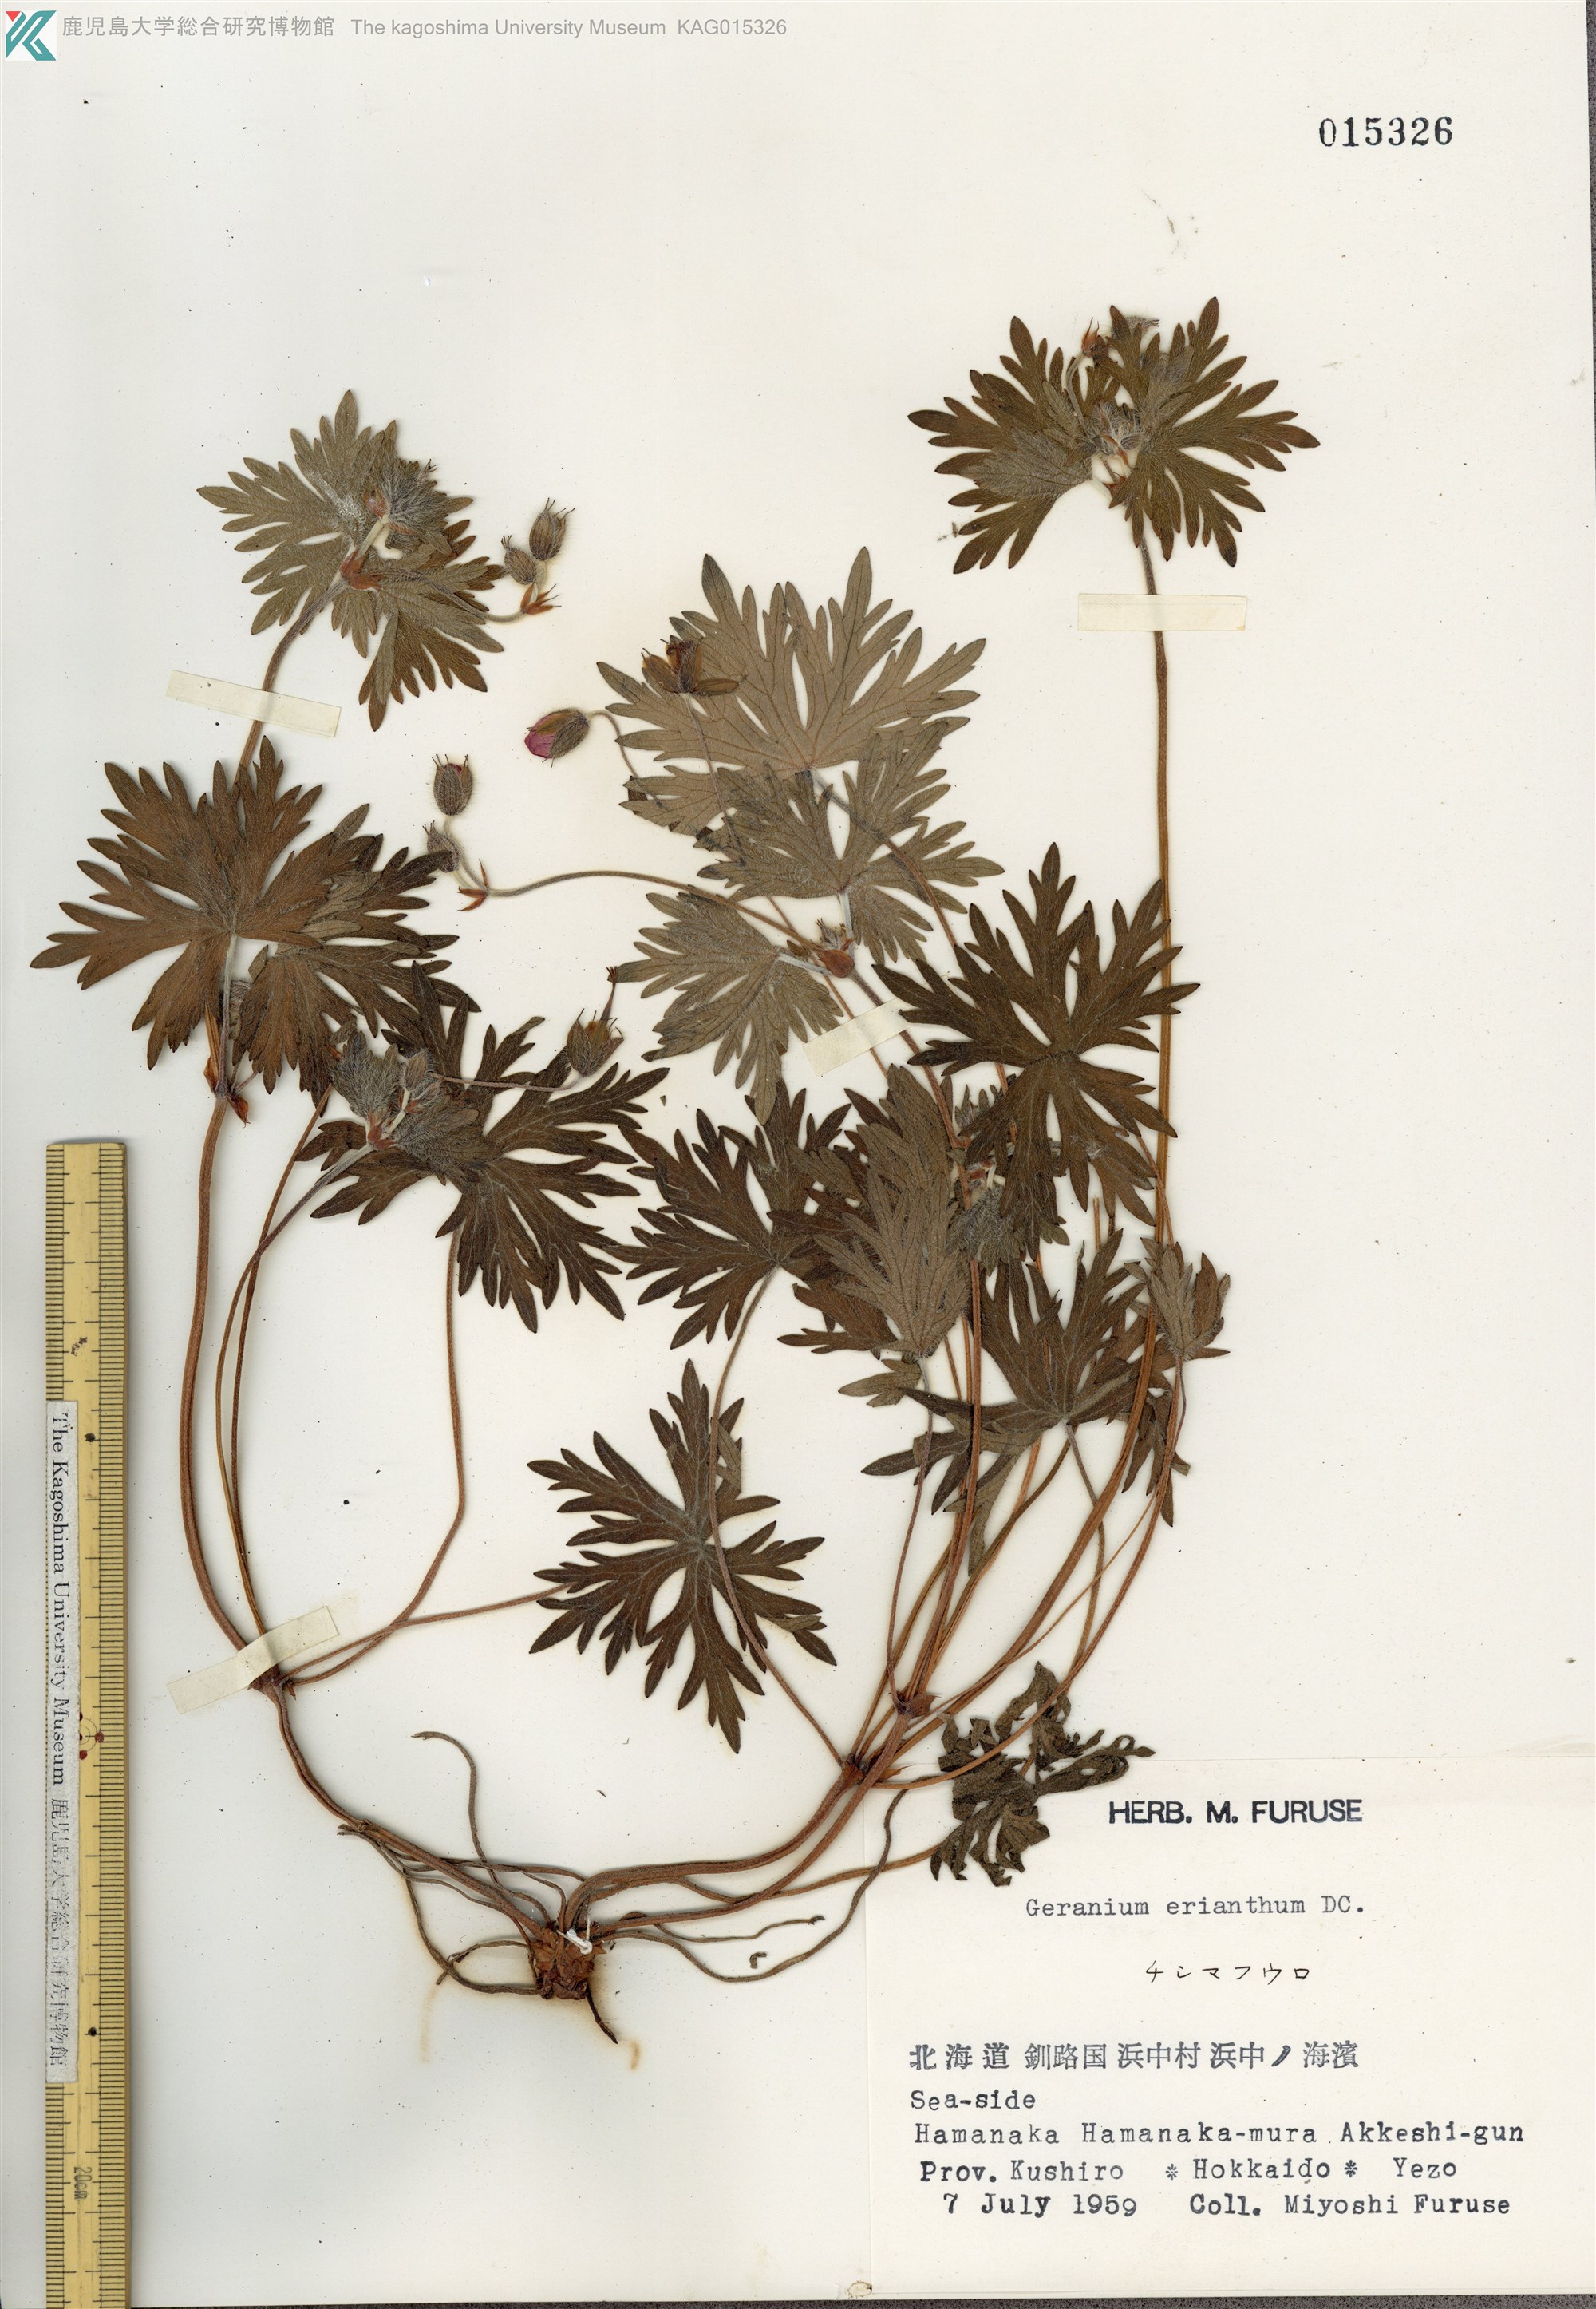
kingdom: Plantae
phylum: Tracheophyta
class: Magnoliopsida
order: Geraniales
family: Geraniaceae
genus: Geranium
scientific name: Geranium erianthum
